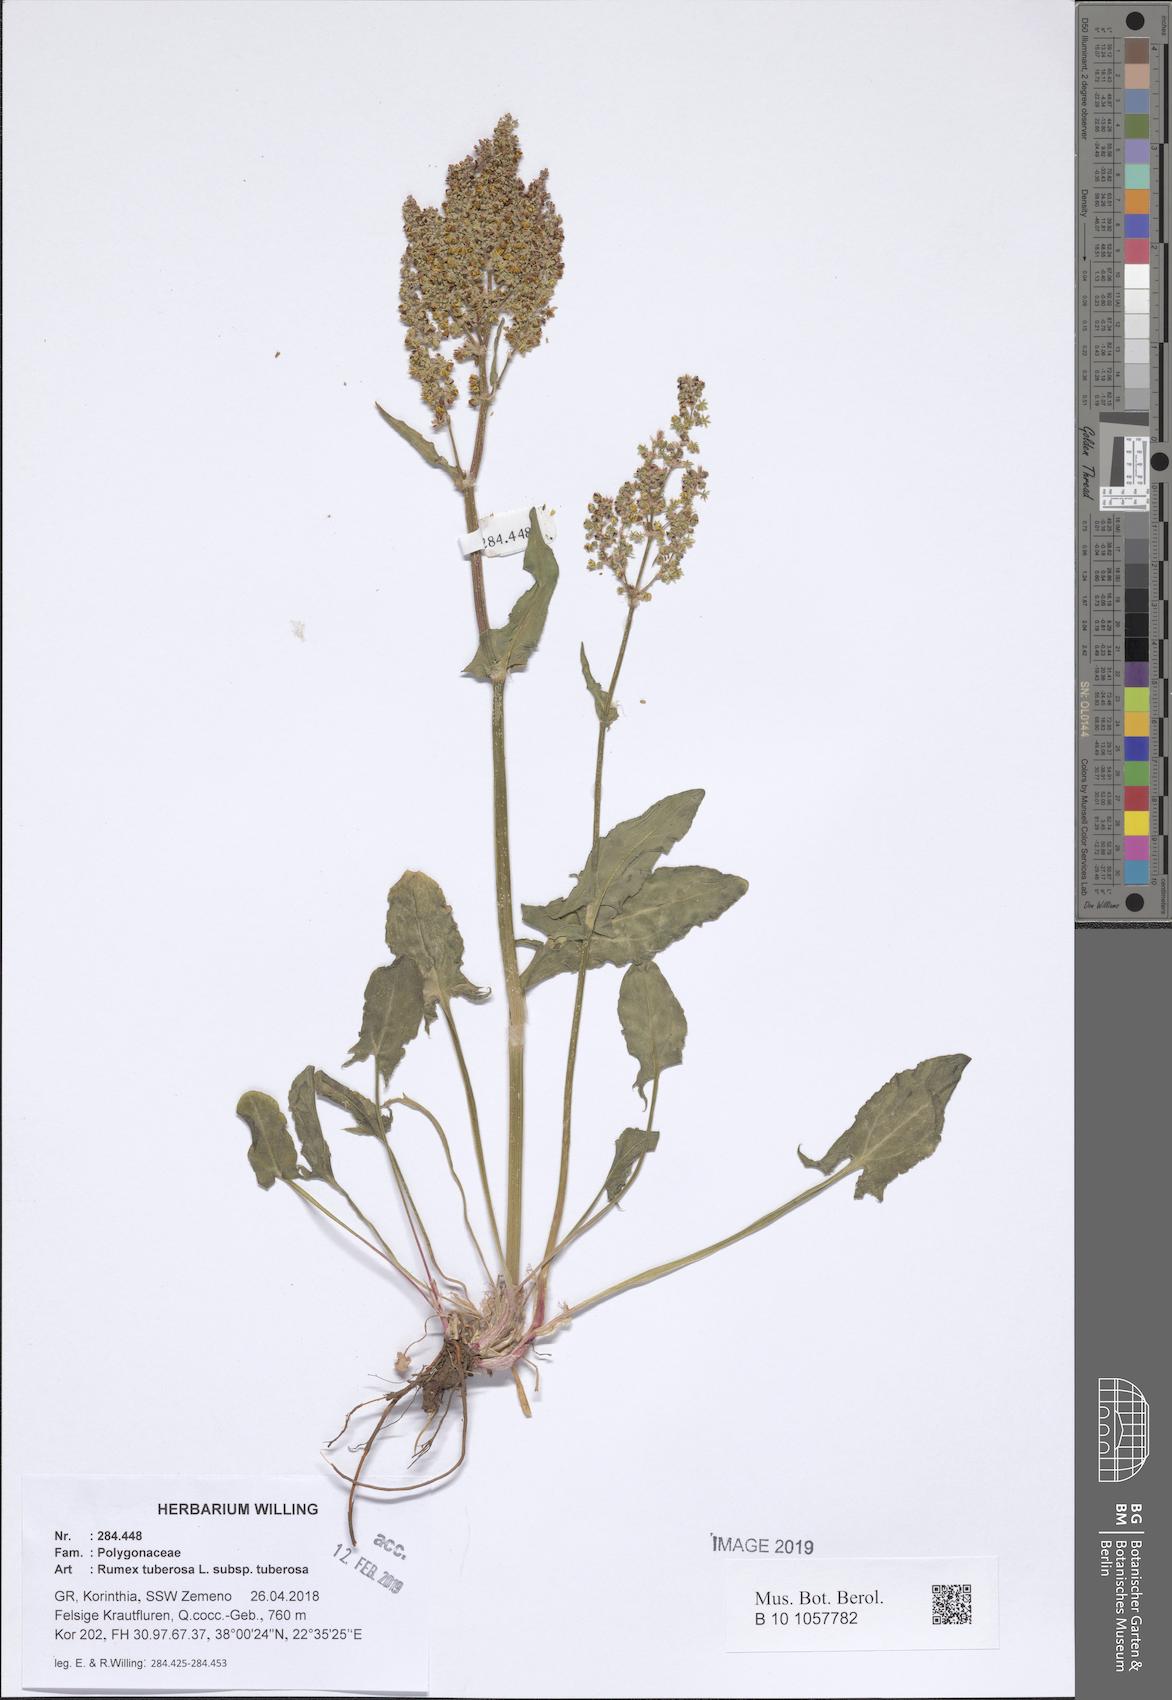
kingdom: Plantae
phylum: Tracheophyta
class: Magnoliopsida
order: Caryophyllales
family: Polygonaceae
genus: Rumex
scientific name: Rumex tuberosus
